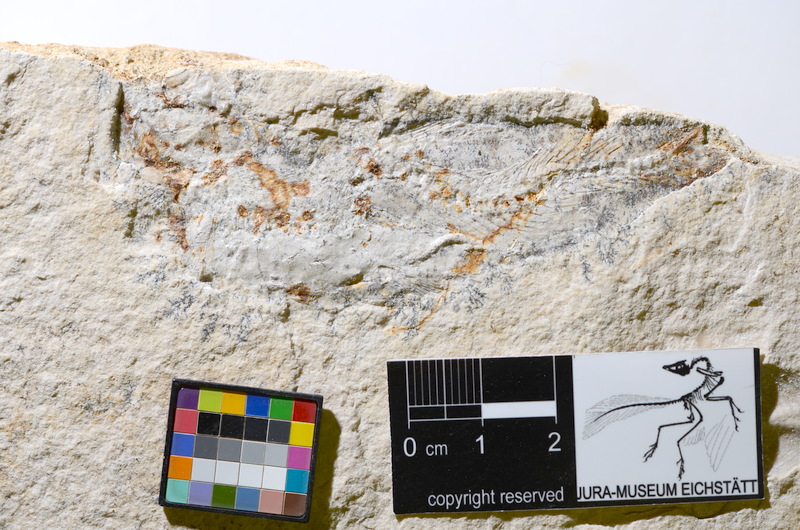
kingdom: Animalia
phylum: Chordata
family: Ascalaboidae
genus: Tharsis
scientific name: Tharsis
